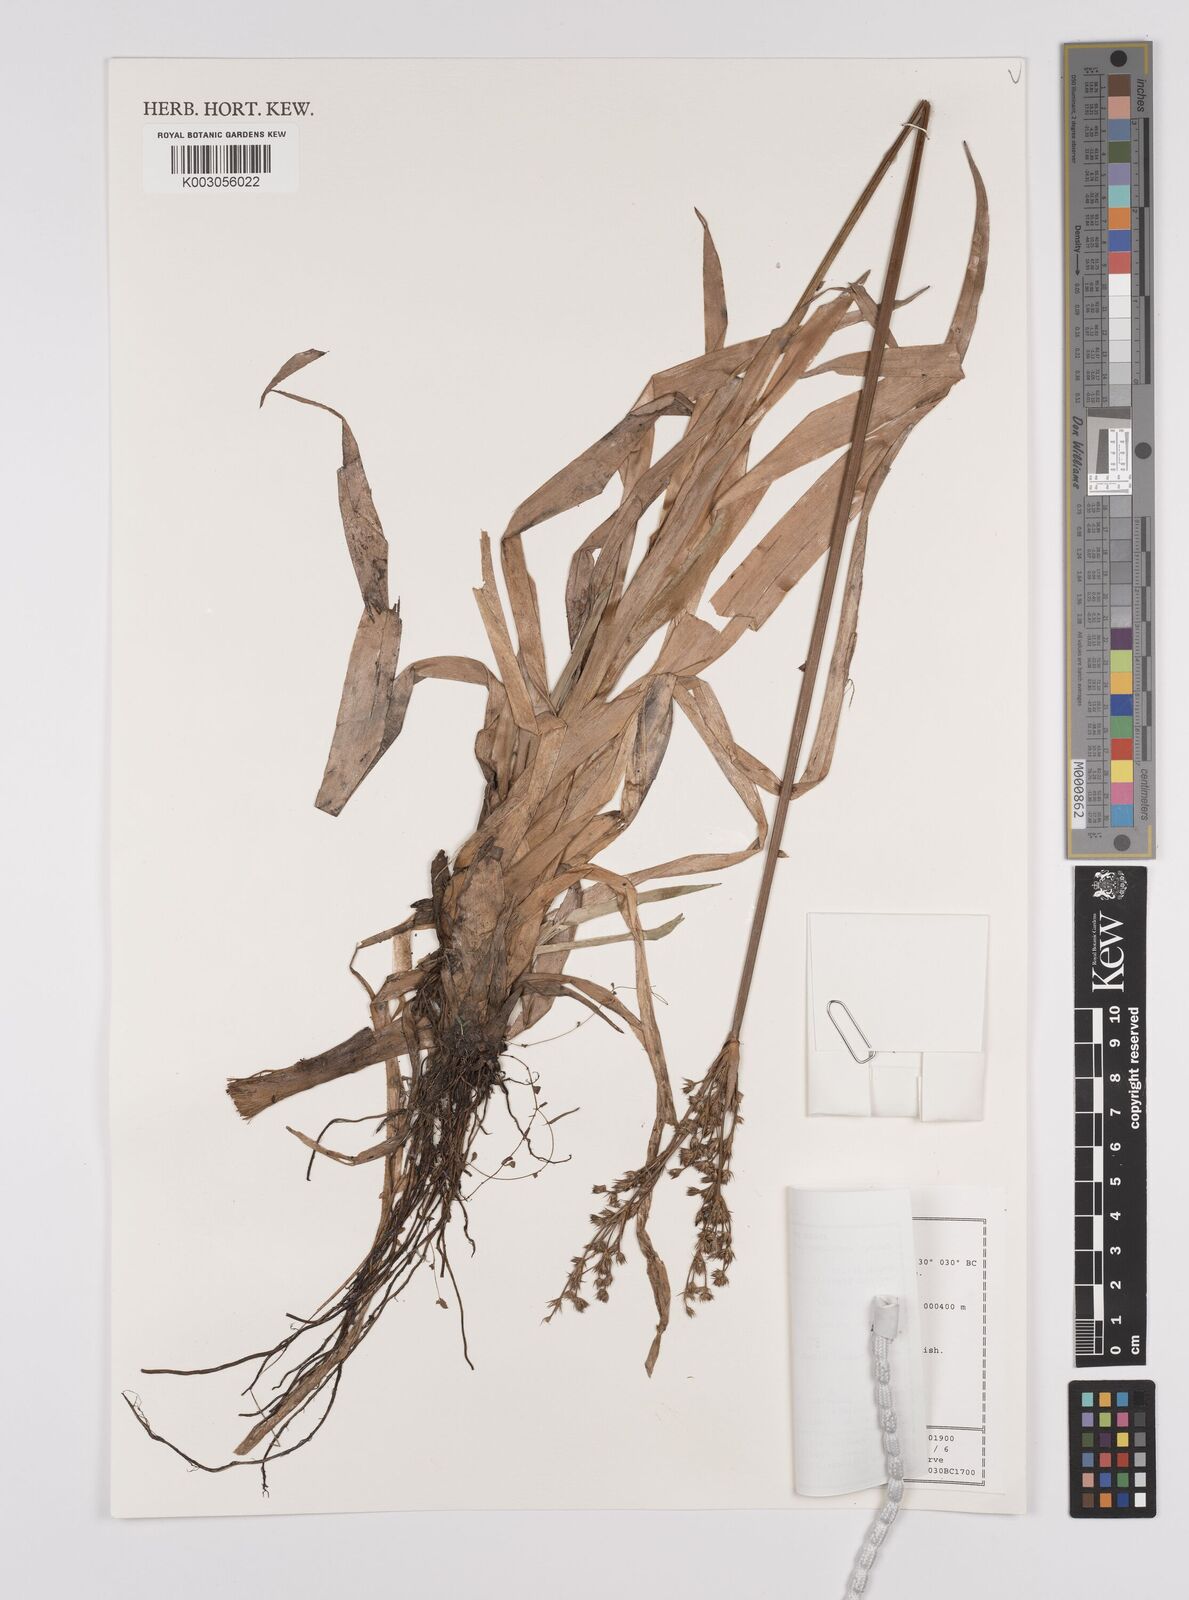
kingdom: Plantae
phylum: Tracheophyta
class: Liliopsida
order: Poales
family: Juncaceae
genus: Juncus
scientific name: Juncus lomatophyllus
